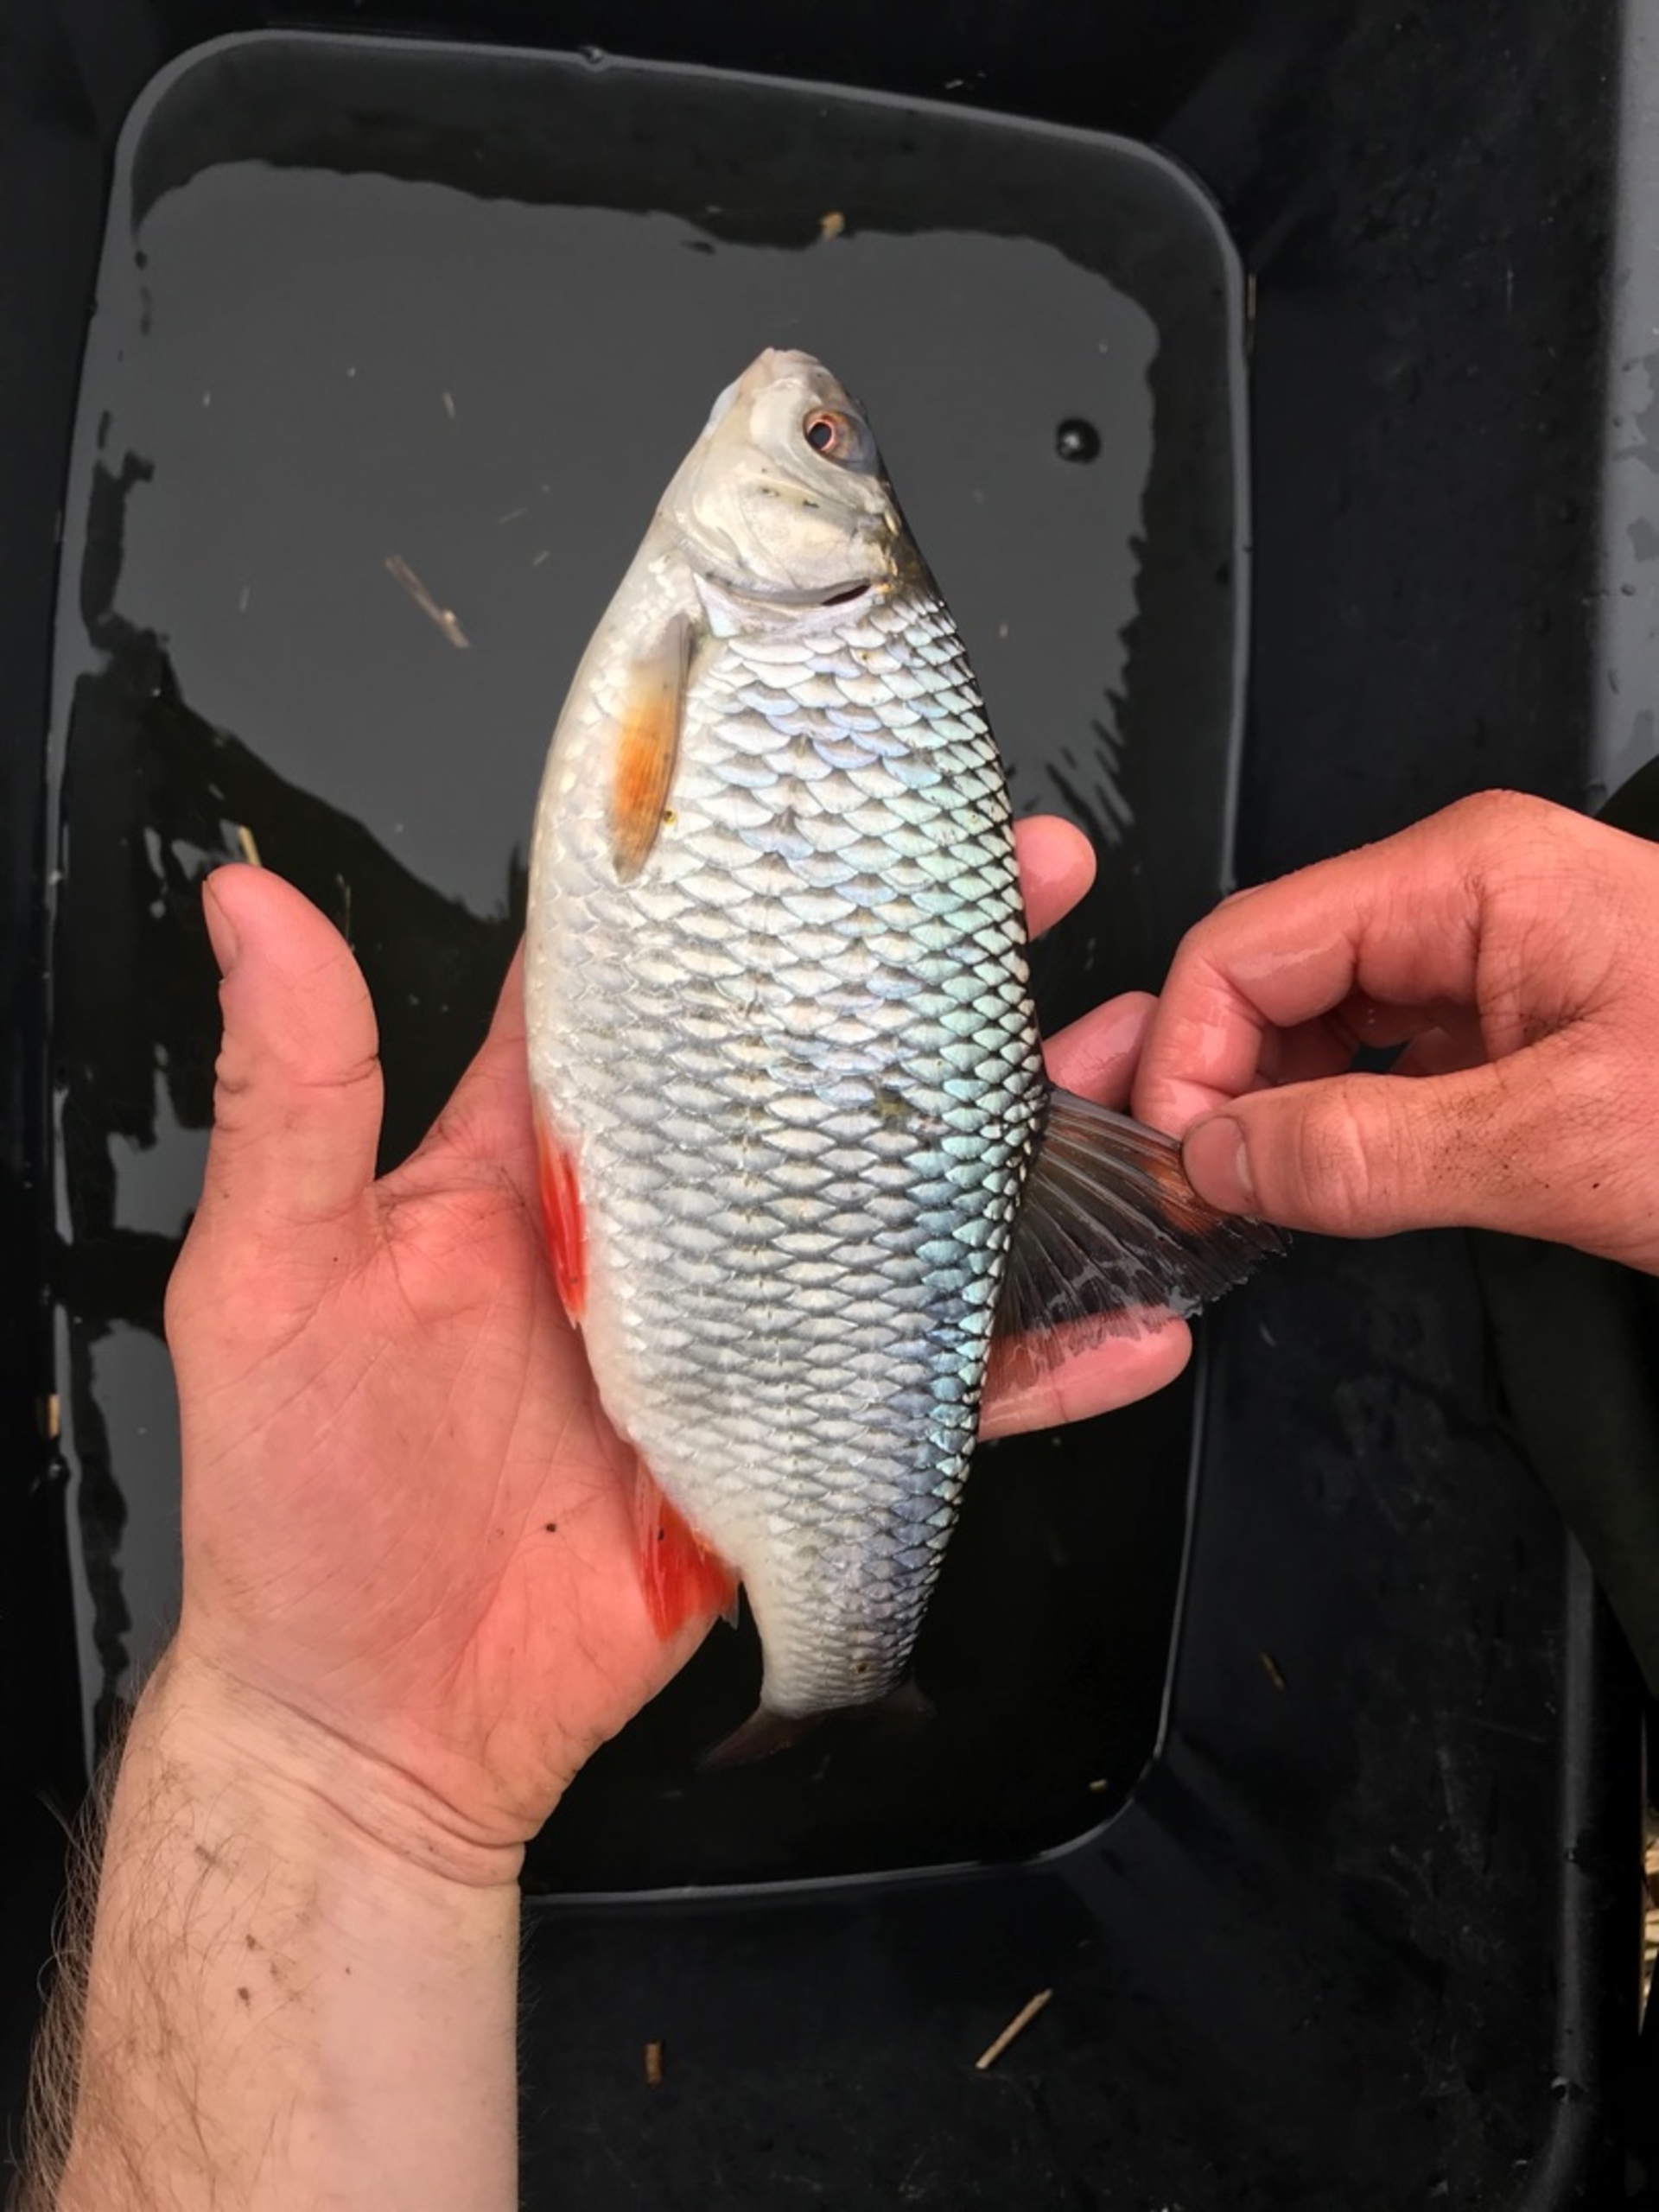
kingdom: Animalia
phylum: Chordata
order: Cypriniformes
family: Cyprinidae
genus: Rutilus
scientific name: Rutilus rutilus
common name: Skalle
